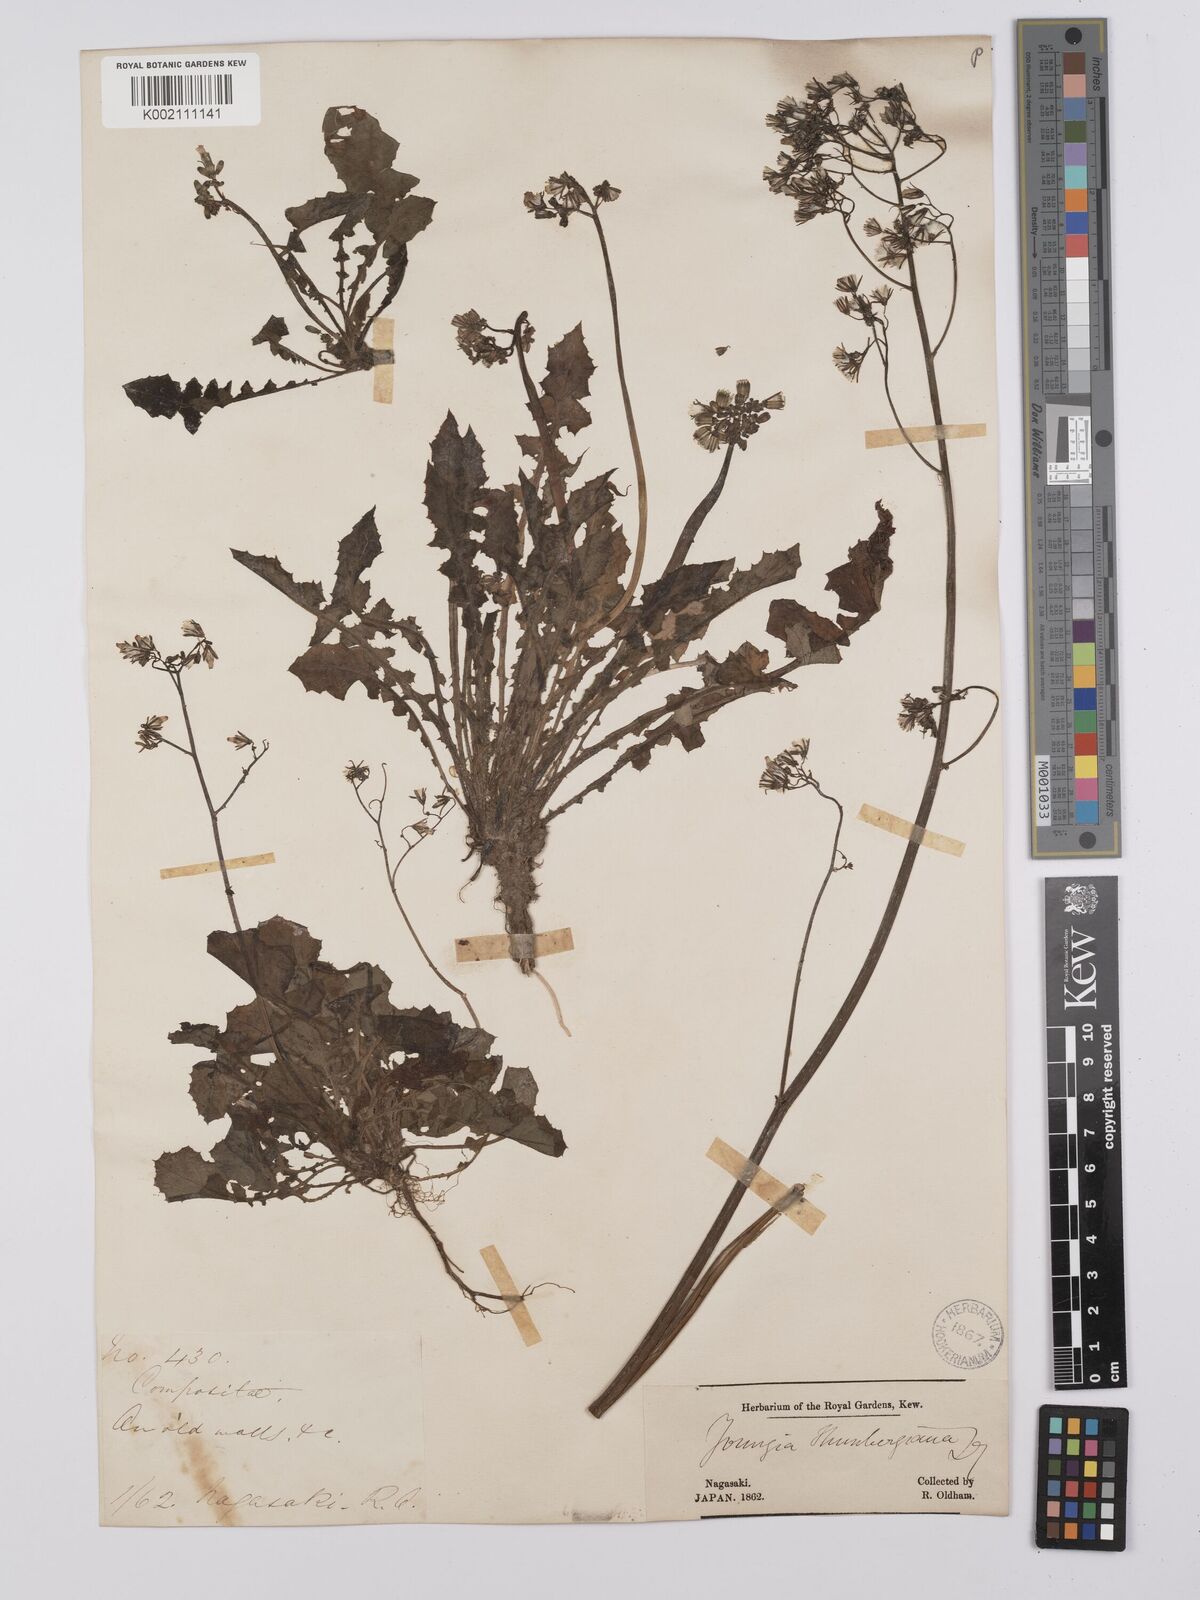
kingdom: Plantae
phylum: Tracheophyta
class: Magnoliopsida
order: Asterales
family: Asteraceae
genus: Youngia
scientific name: Youngia japonica
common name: Oriental false hawksbeard
